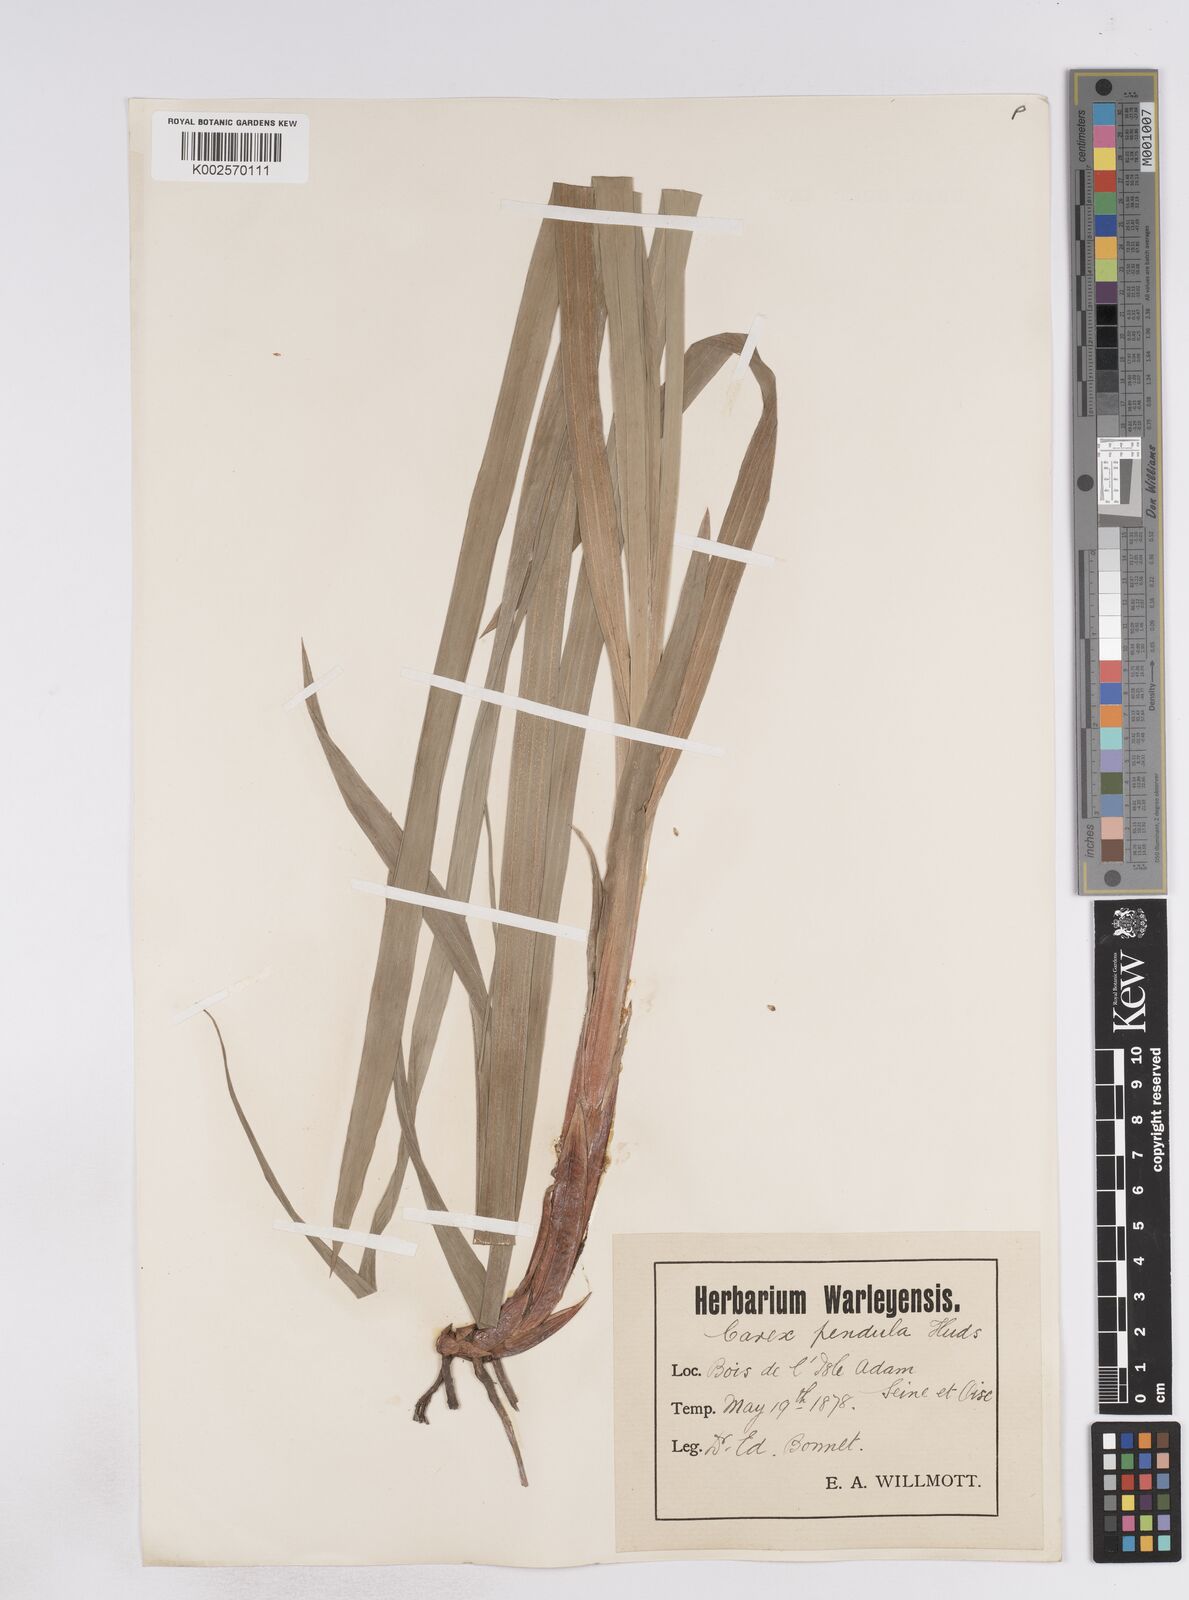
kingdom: Plantae
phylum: Tracheophyta
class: Liliopsida
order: Poales
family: Cyperaceae
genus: Carex
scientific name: Carex pendula
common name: Pendulous sedge
